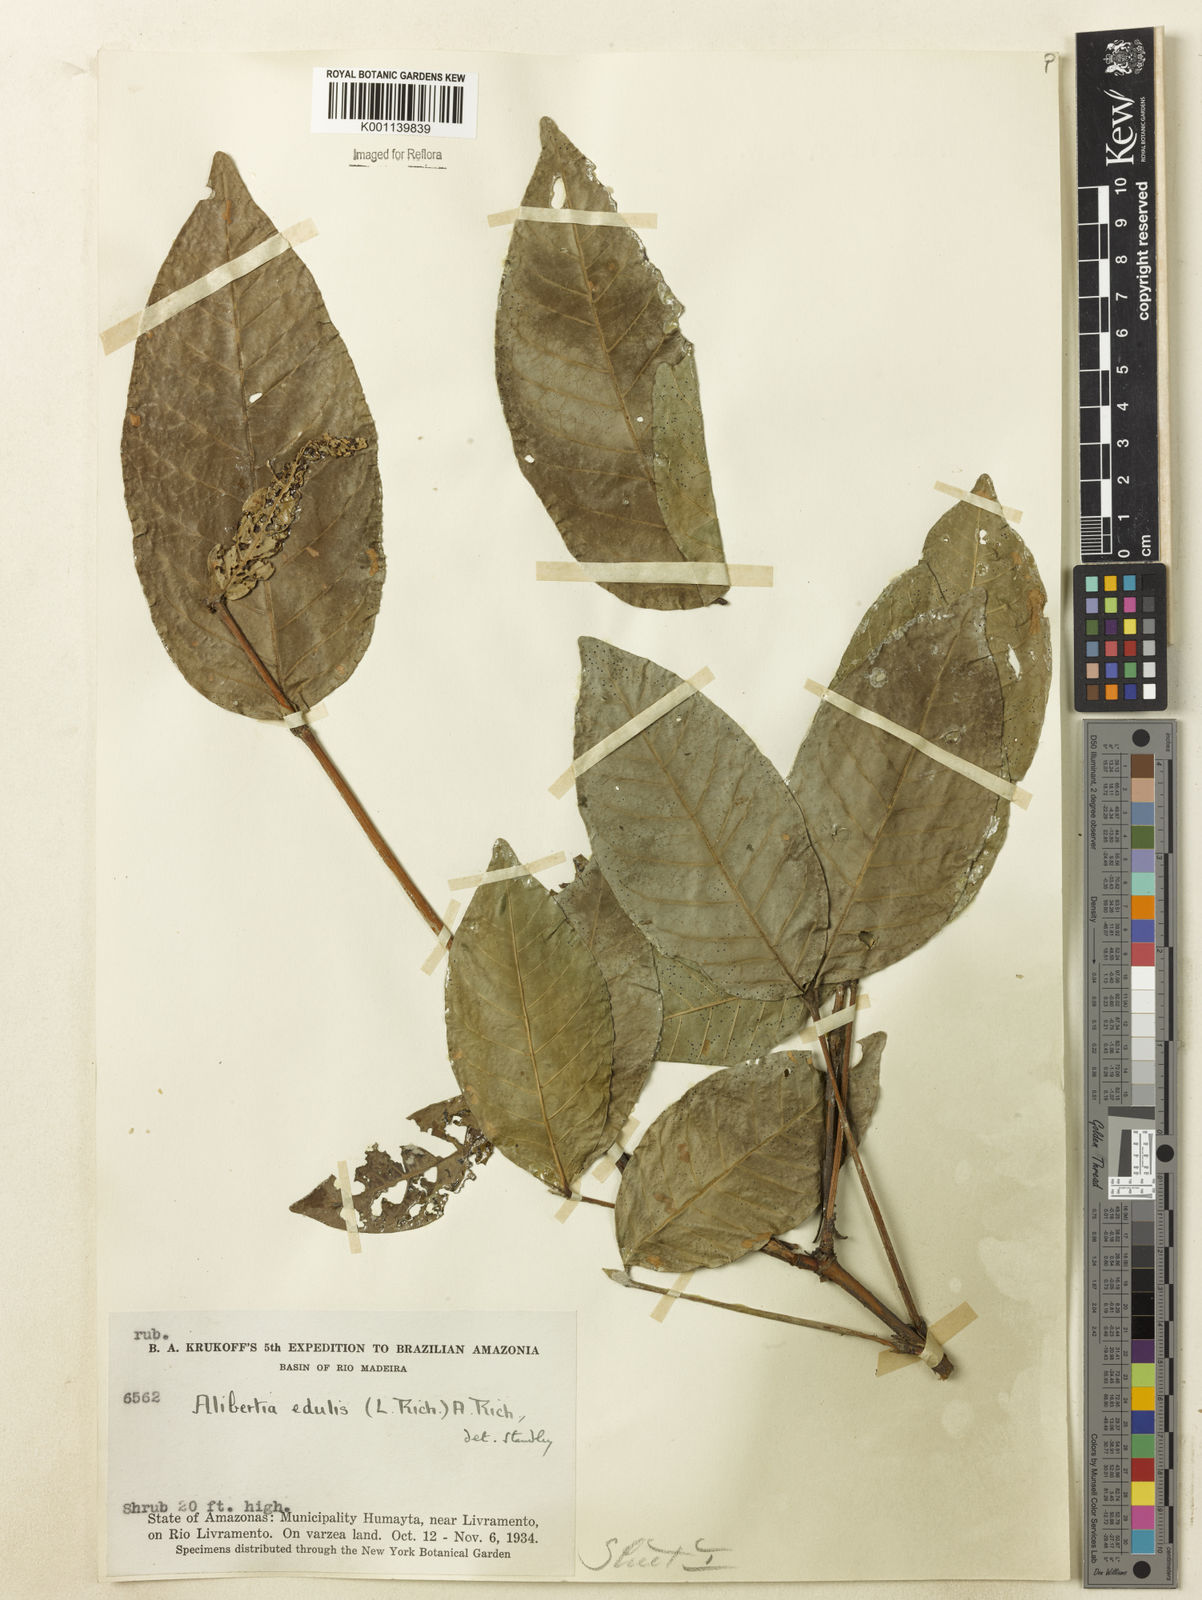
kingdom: Plantae
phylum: Tracheophyta
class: Magnoliopsida
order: Gentianales
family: Rubiaceae
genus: Alibertia
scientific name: Alibertia latifolia
